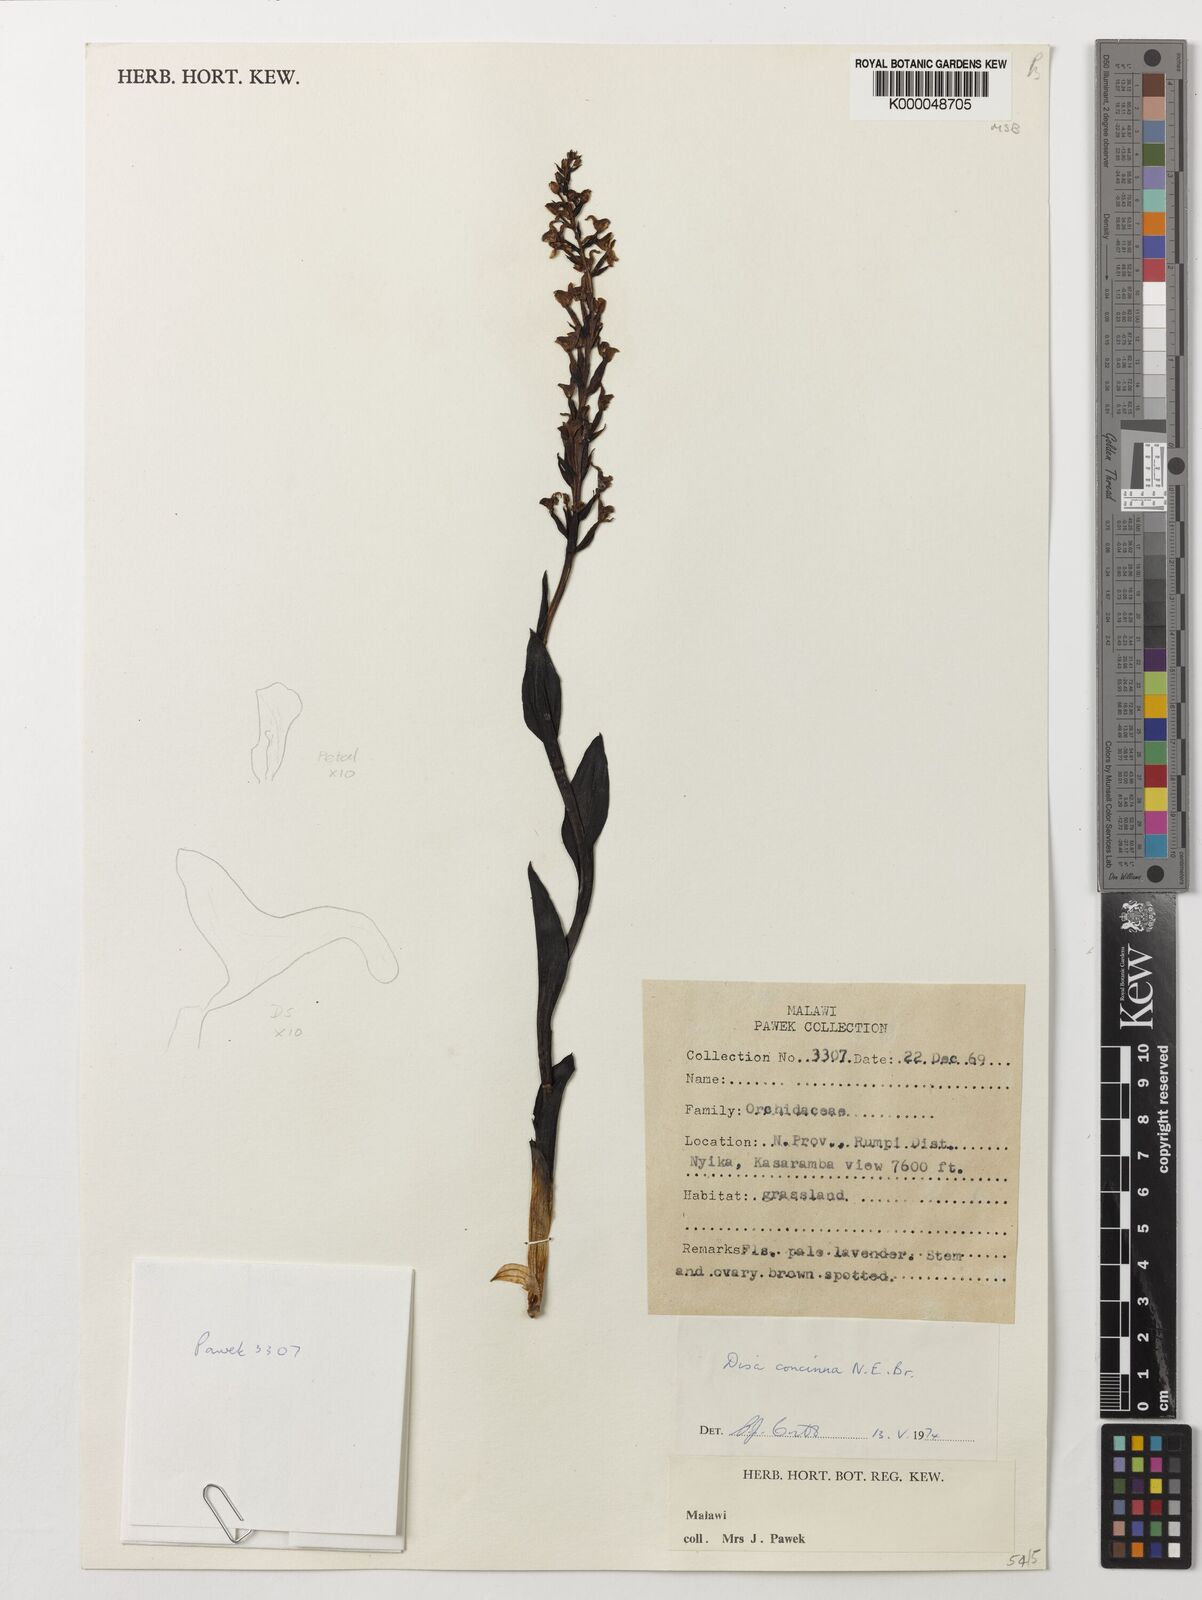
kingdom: Plantae
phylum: Tracheophyta
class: Liliopsida
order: Asparagales
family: Orchidaceae
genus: Disa
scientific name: Disa nyikensis
